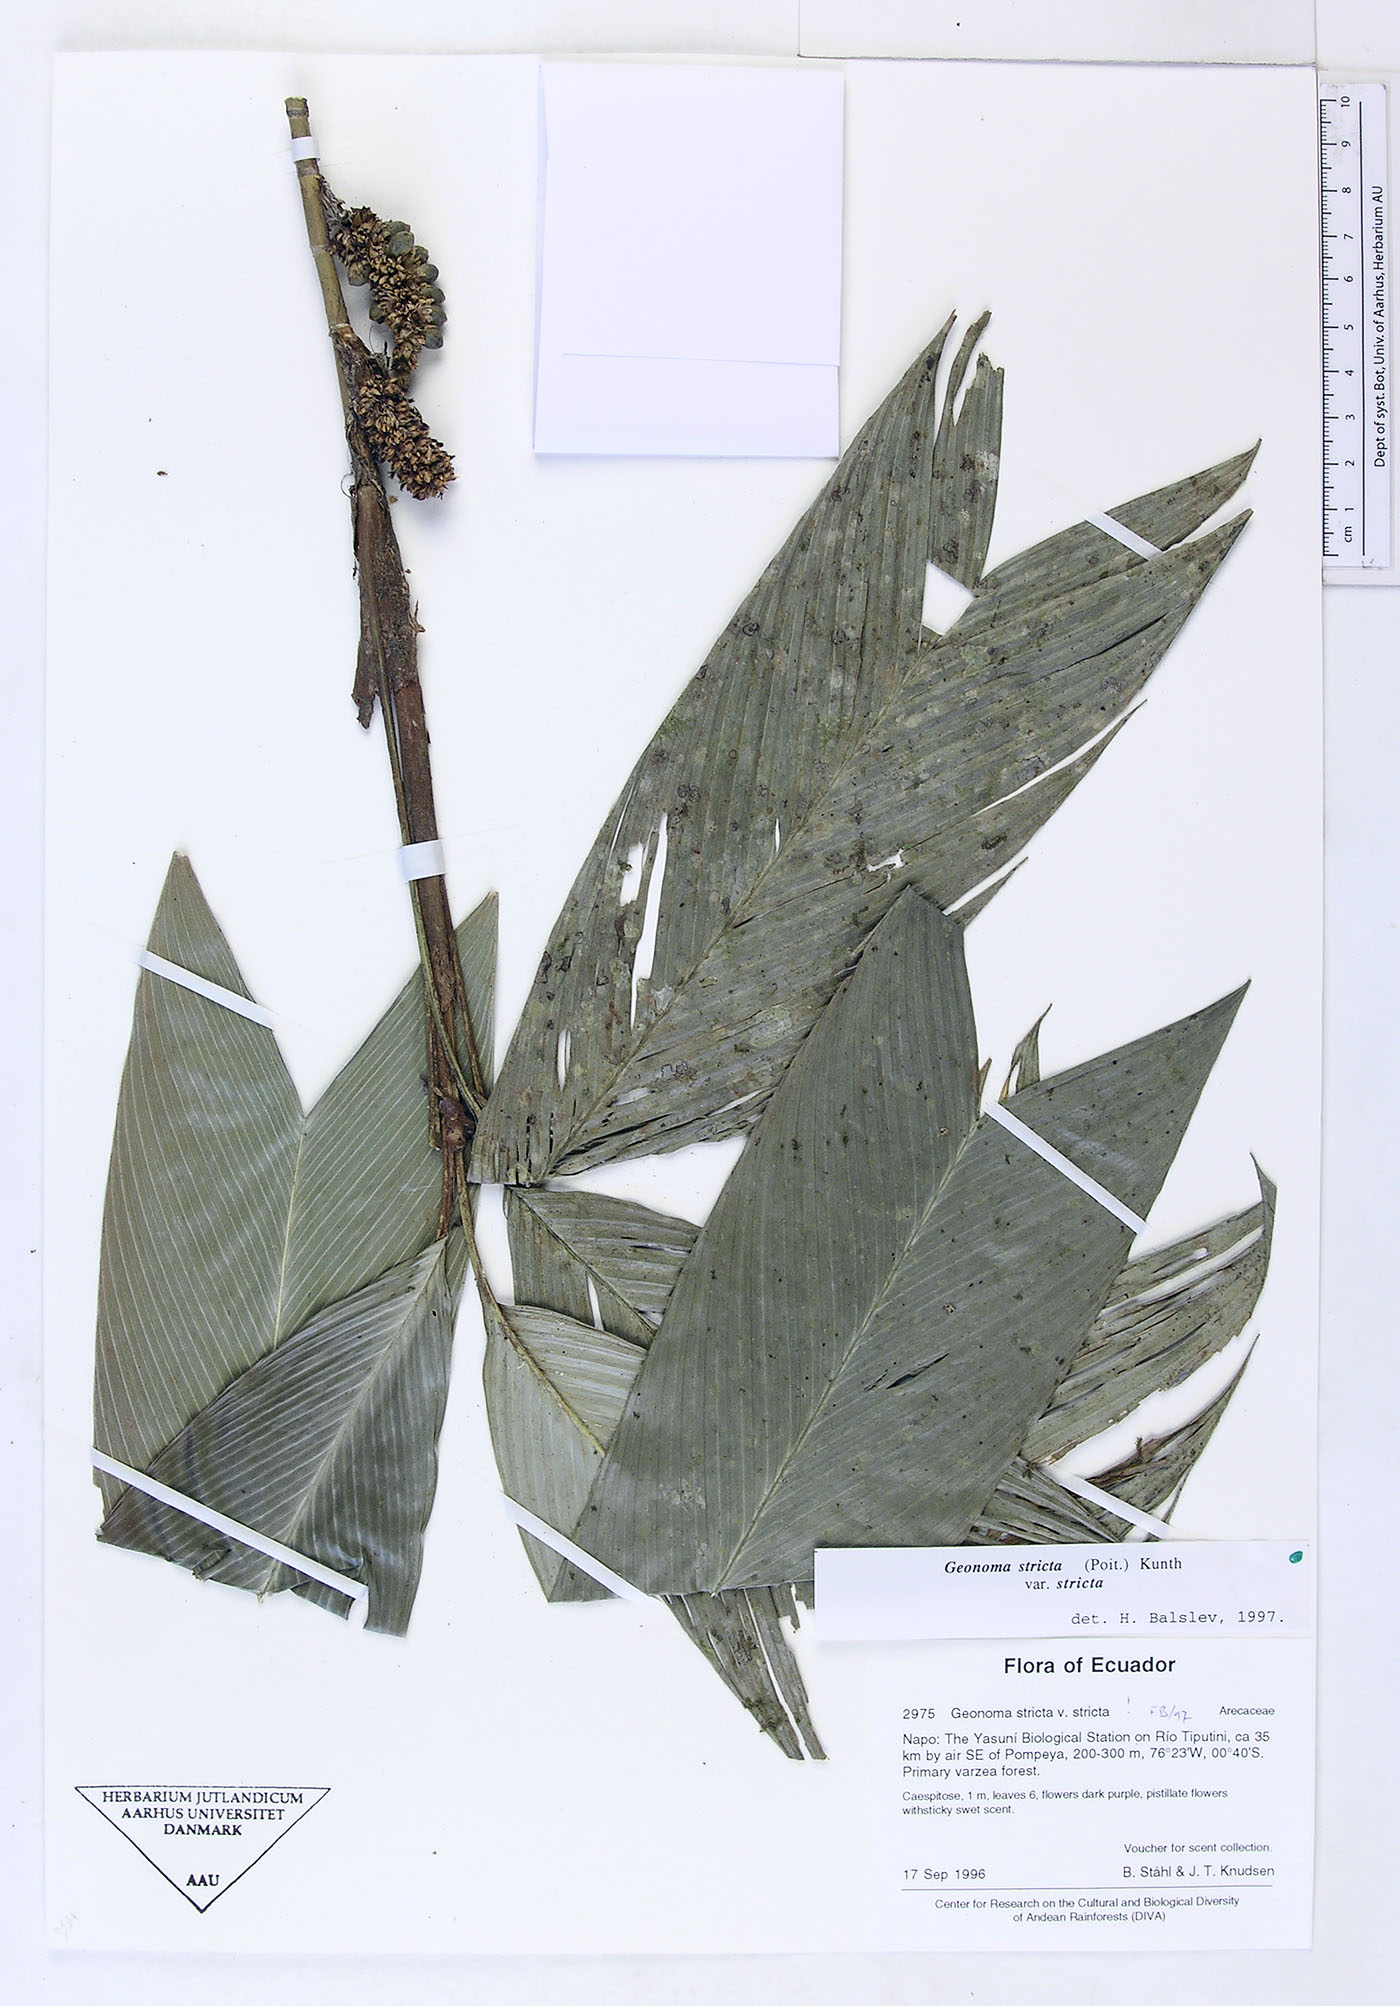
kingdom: Plantae
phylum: Tracheophyta
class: Liliopsida
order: Arecales
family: Arecaceae
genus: Geonoma
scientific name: Geonoma stricta
